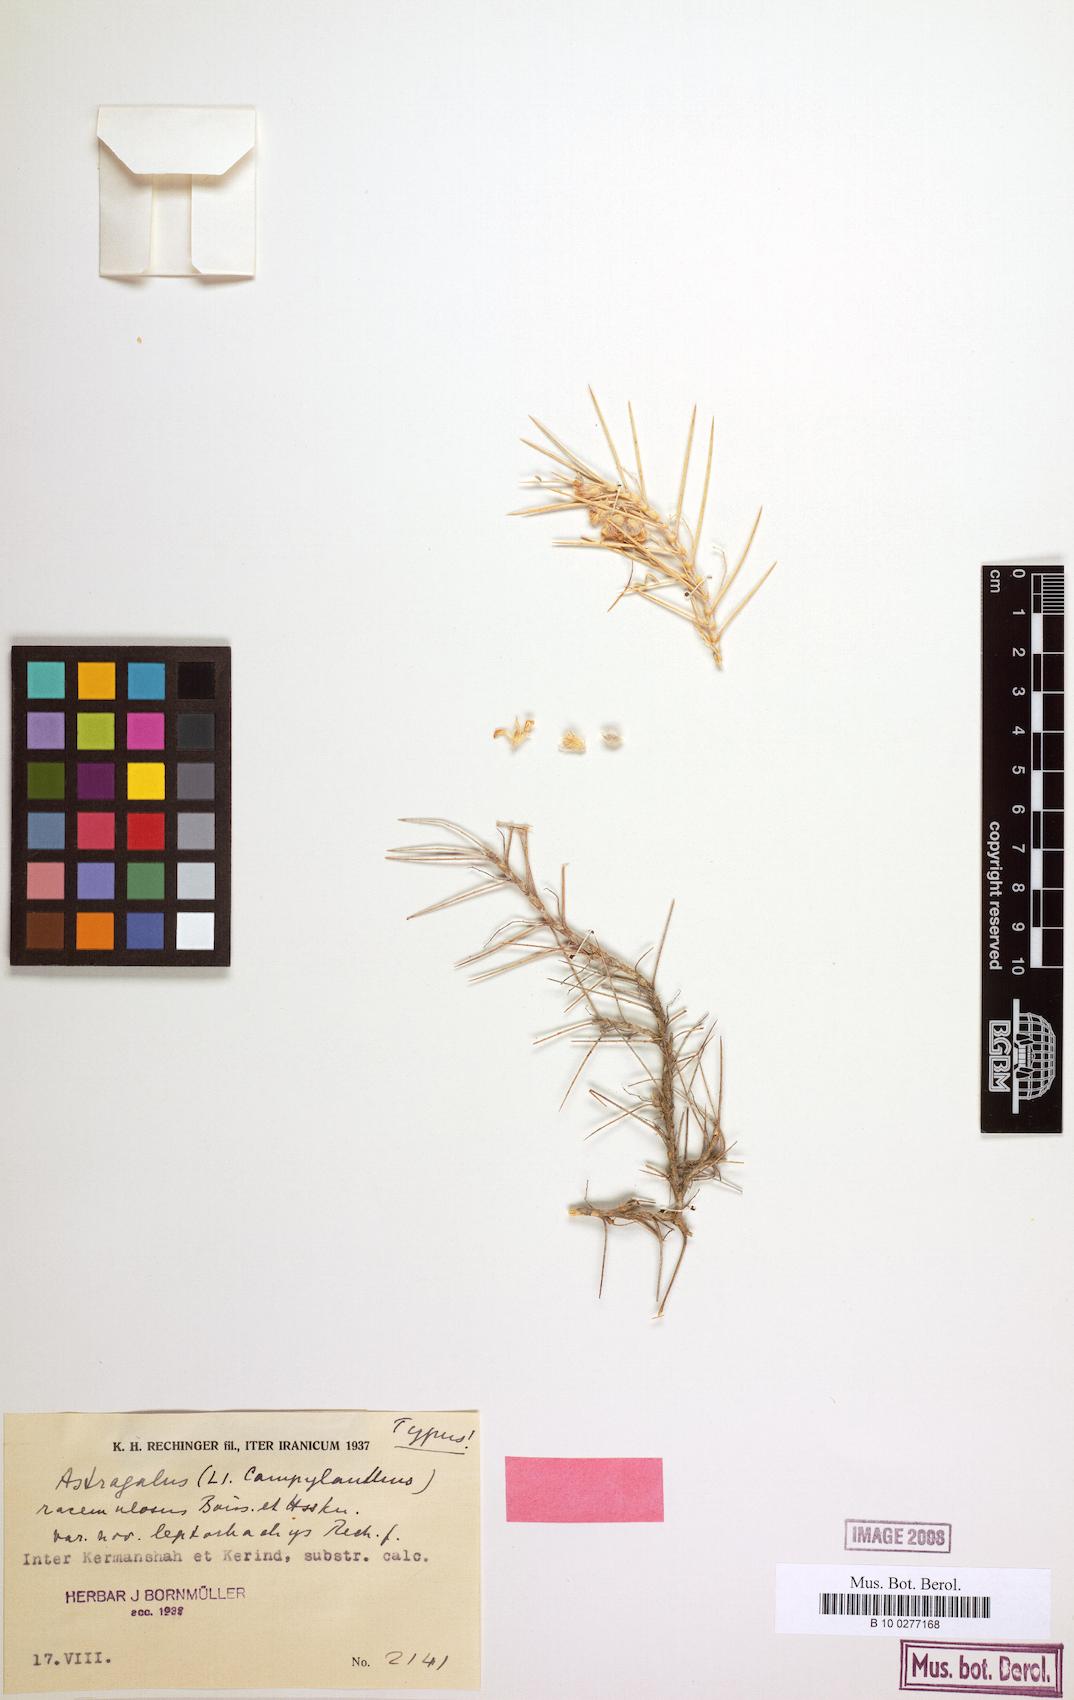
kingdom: Plantae
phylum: Tracheophyta
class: Magnoliopsida
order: Fabales
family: Fabaceae
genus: Astragalus
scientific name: Astragalus ecbatanus
